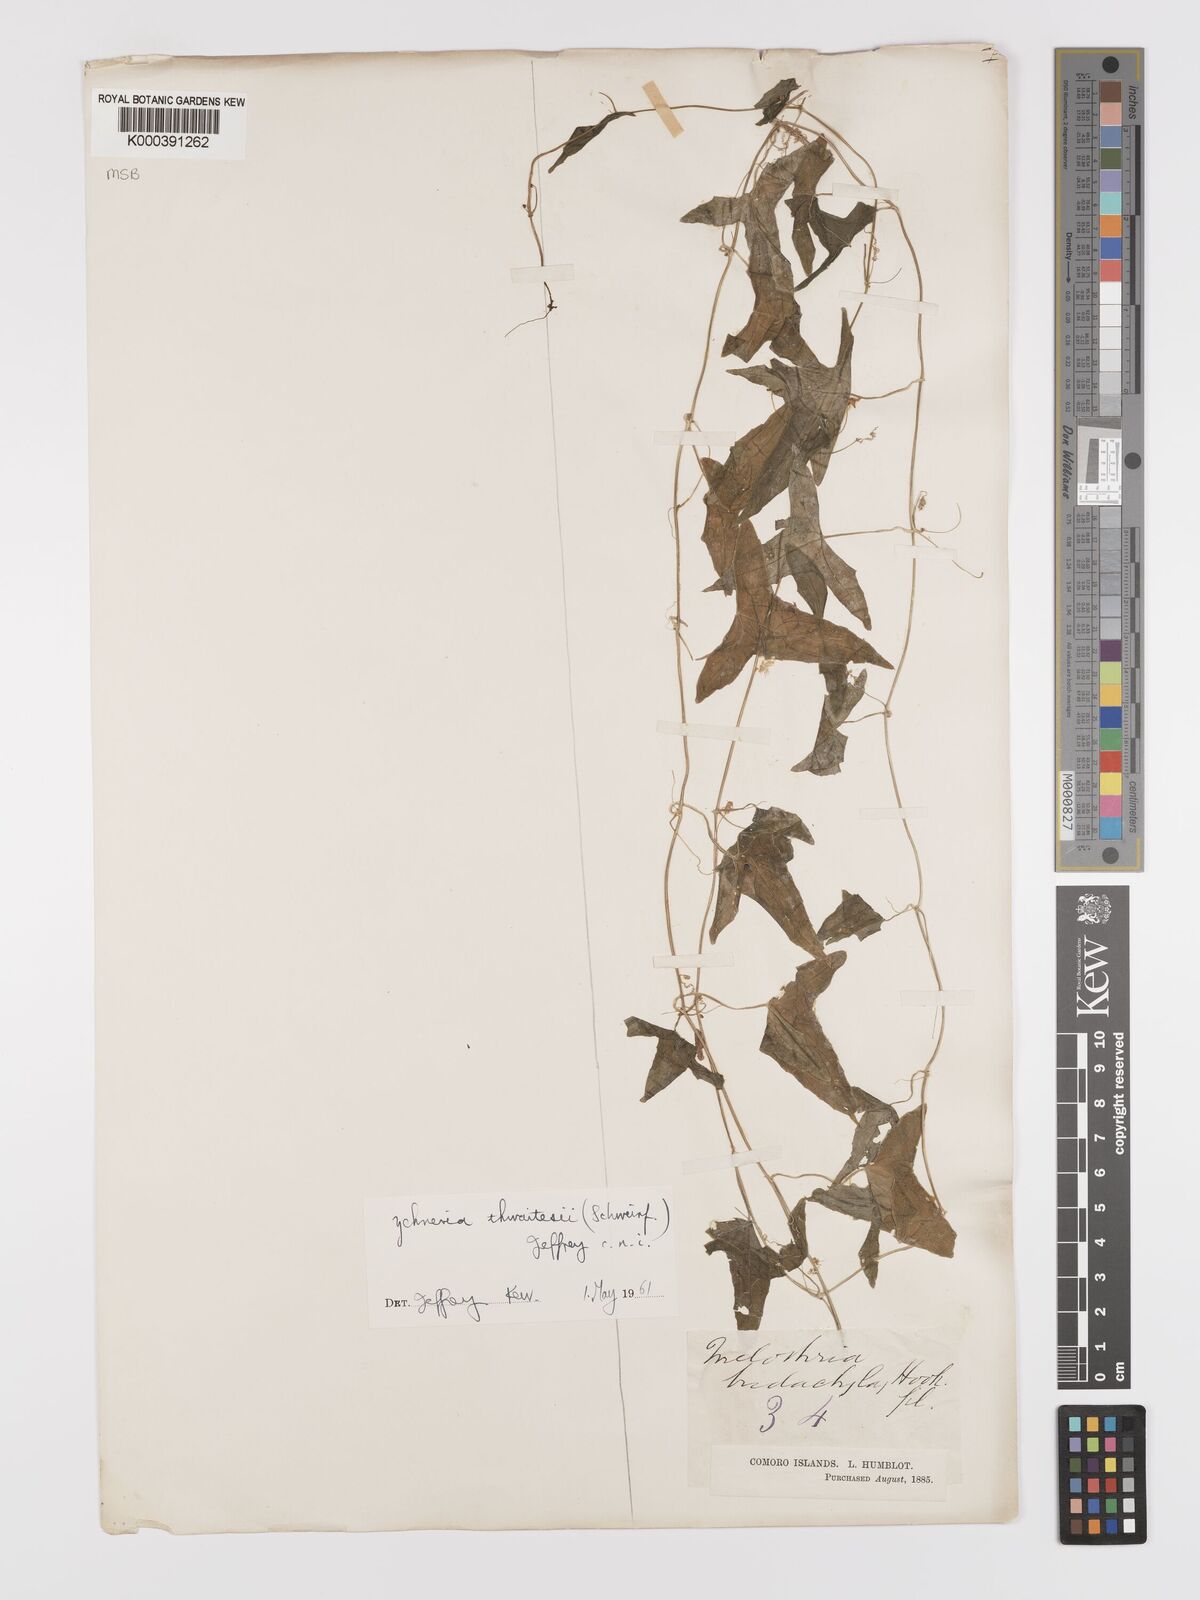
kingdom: Plantae
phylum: Tracheophyta
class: Magnoliopsida
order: Cucurbitales
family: Cucurbitaceae
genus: Zehneria
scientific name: Zehneria thwaitesii
